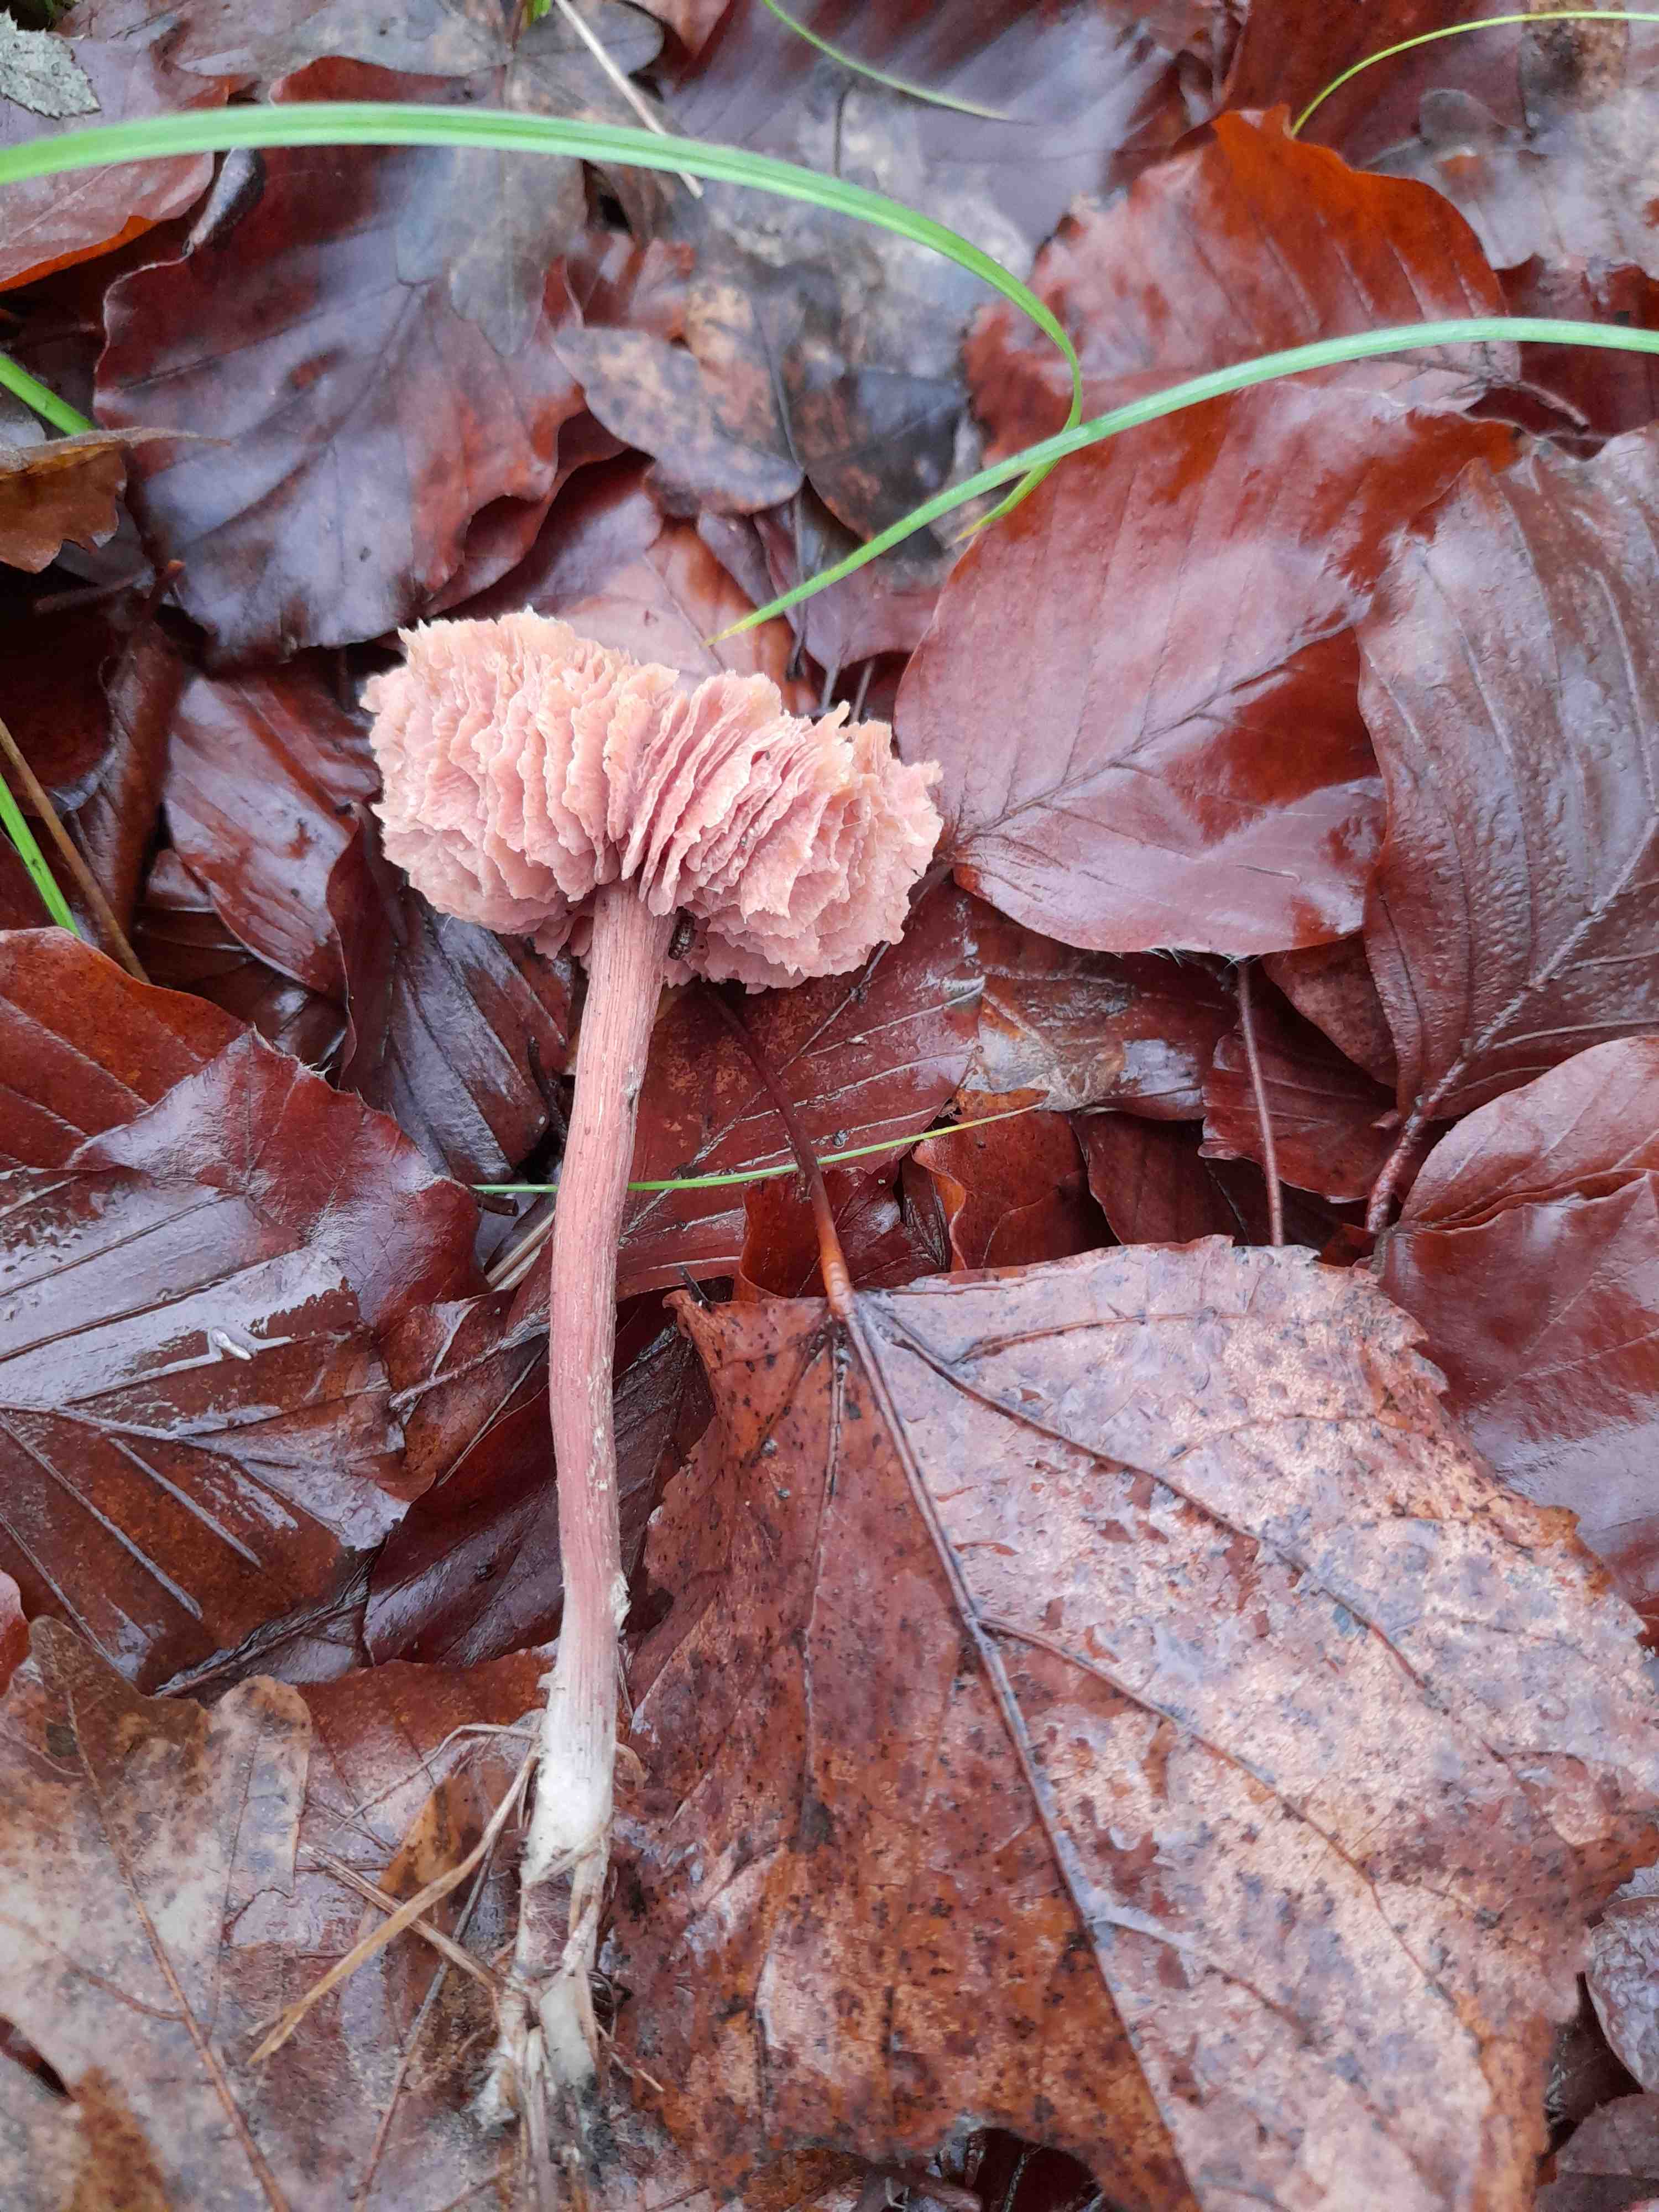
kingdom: Fungi
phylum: Basidiomycota
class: Agaricomycetes
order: Agaricales
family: Hydnangiaceae
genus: Laccaria
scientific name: Laccaria proxima
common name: stor ametysthat
